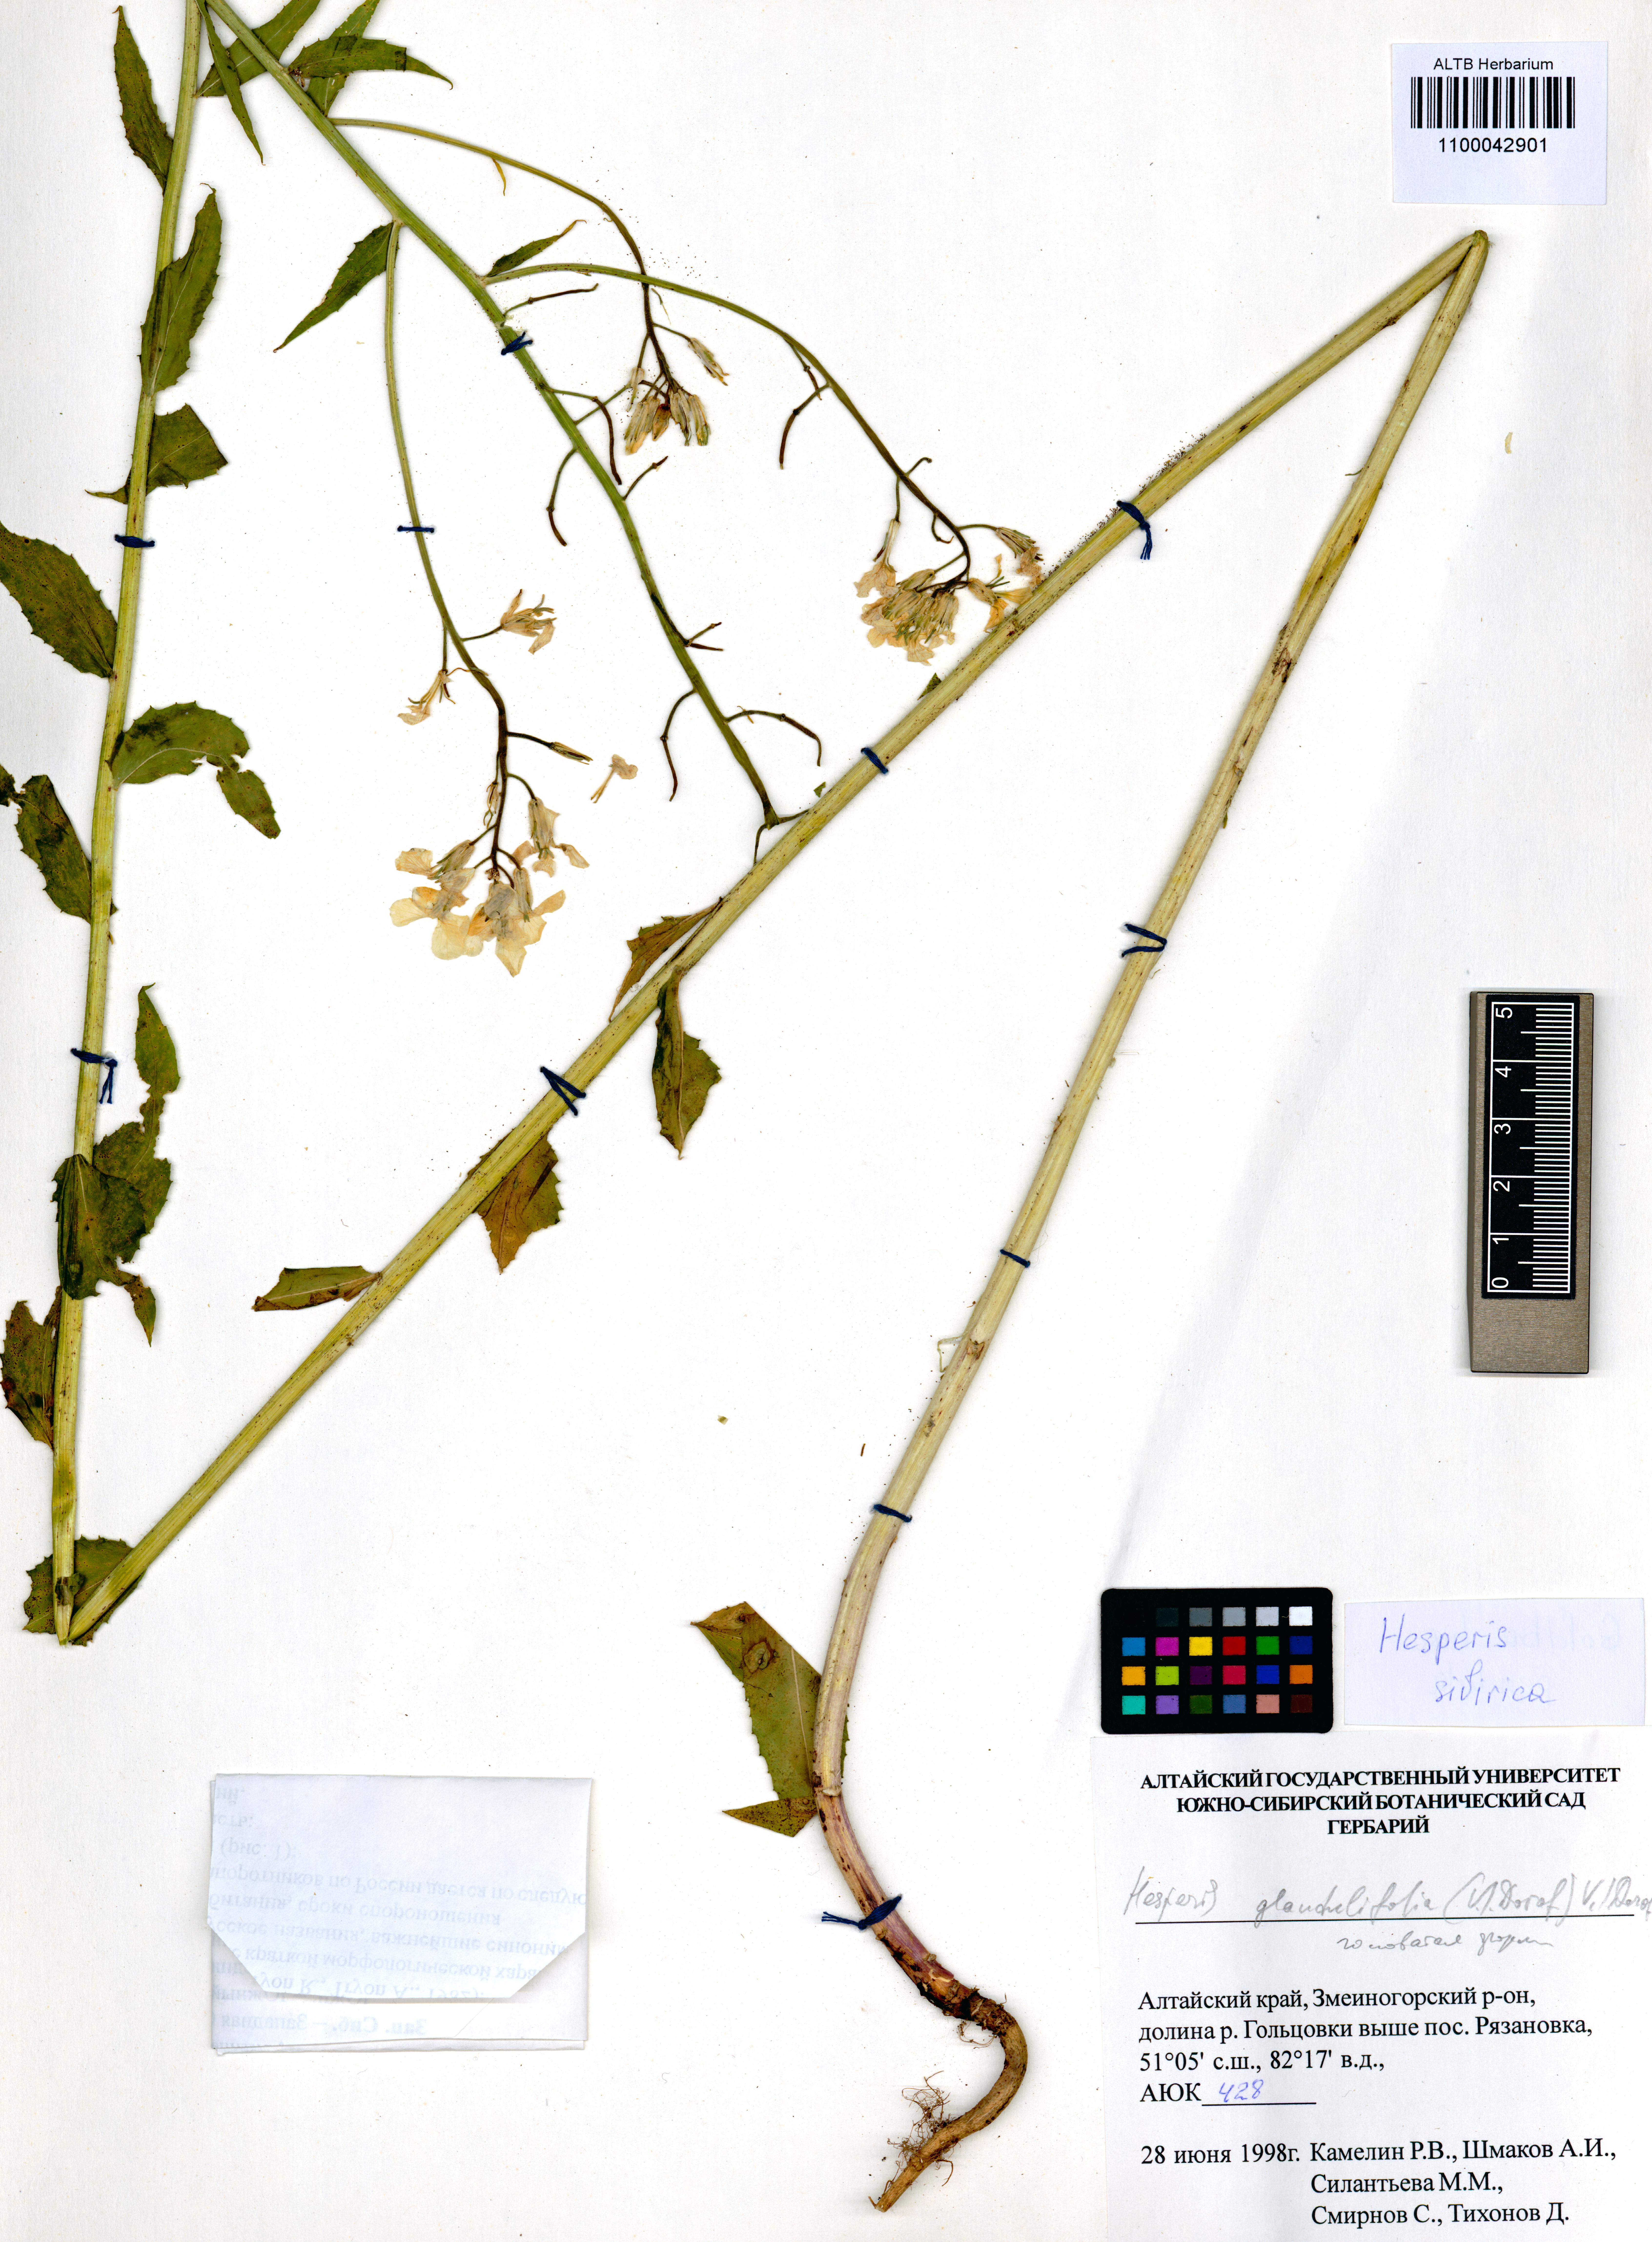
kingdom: Plantae
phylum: Tracheophyta
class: Magnoliopsida
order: Brassicales
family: Brassicaceae
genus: Hesperis
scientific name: Hesperis sibirica
